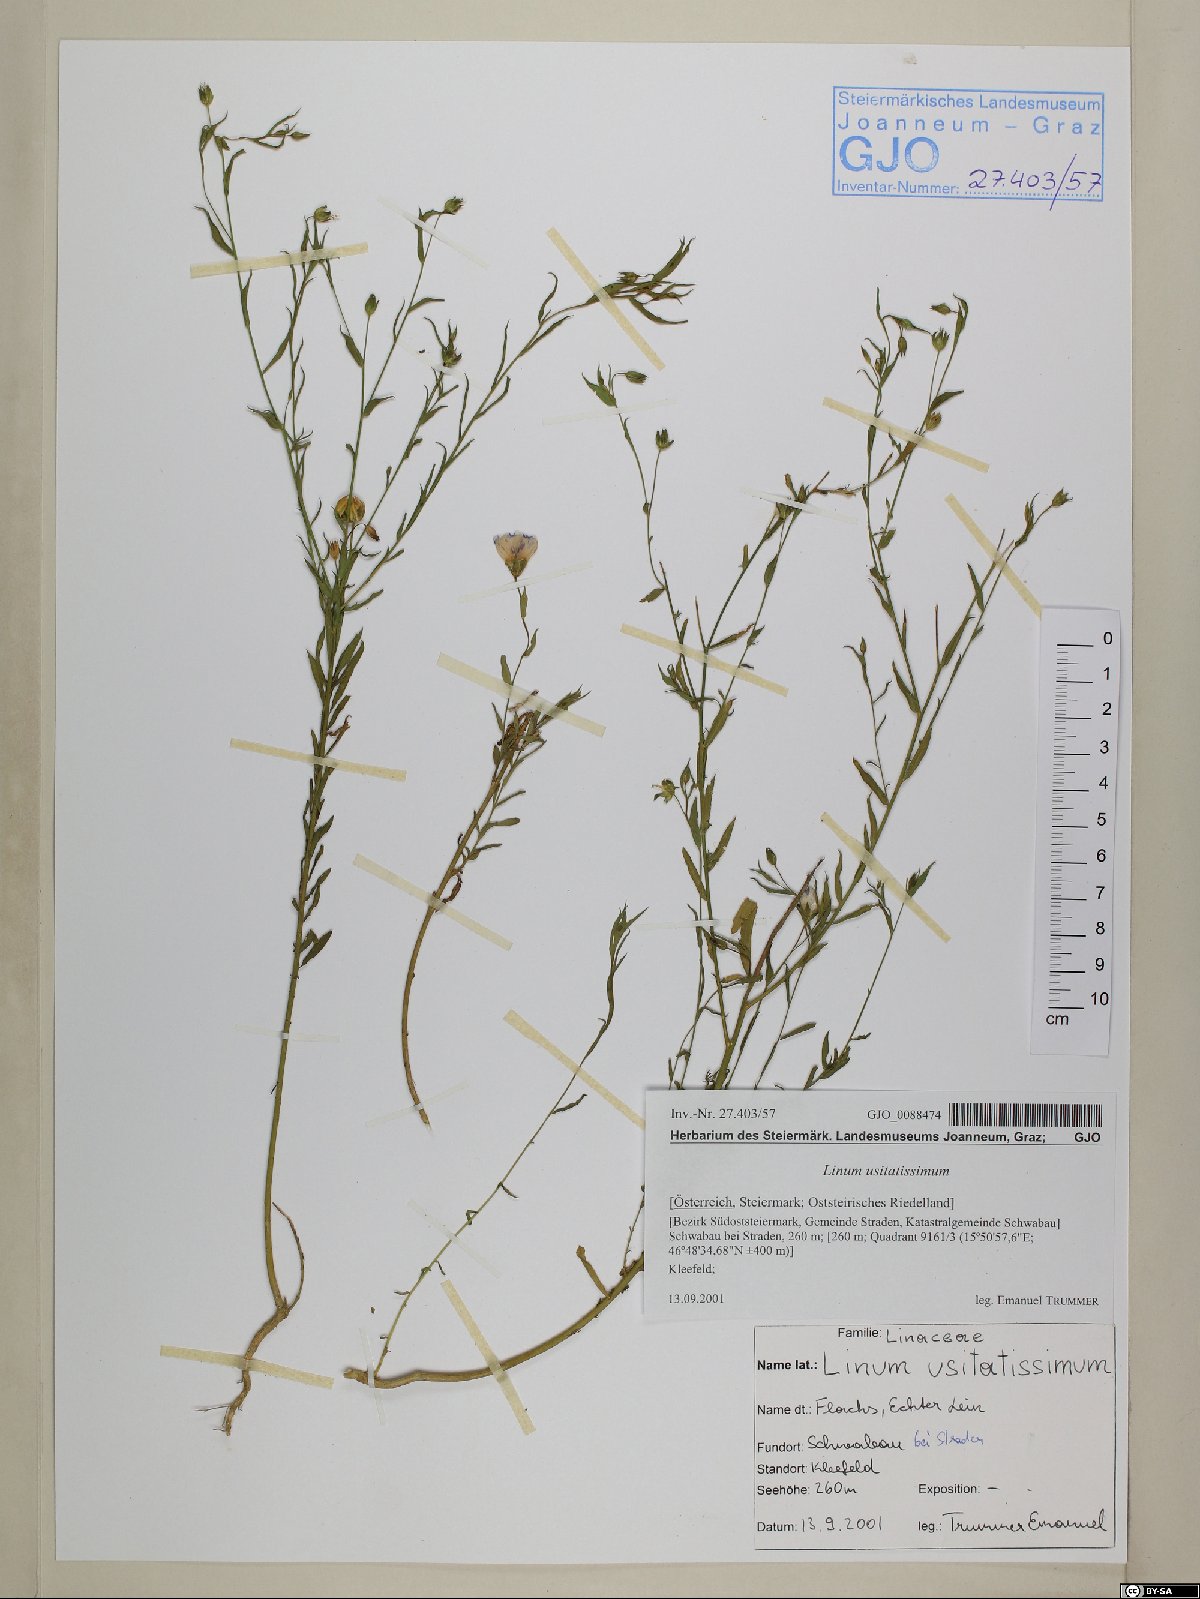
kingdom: Plantae
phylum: Tracheophyta
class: Magnoliopsida
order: Malpighiales
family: Linaceae
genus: Linum
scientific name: Linum usitatissimum
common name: Flax
